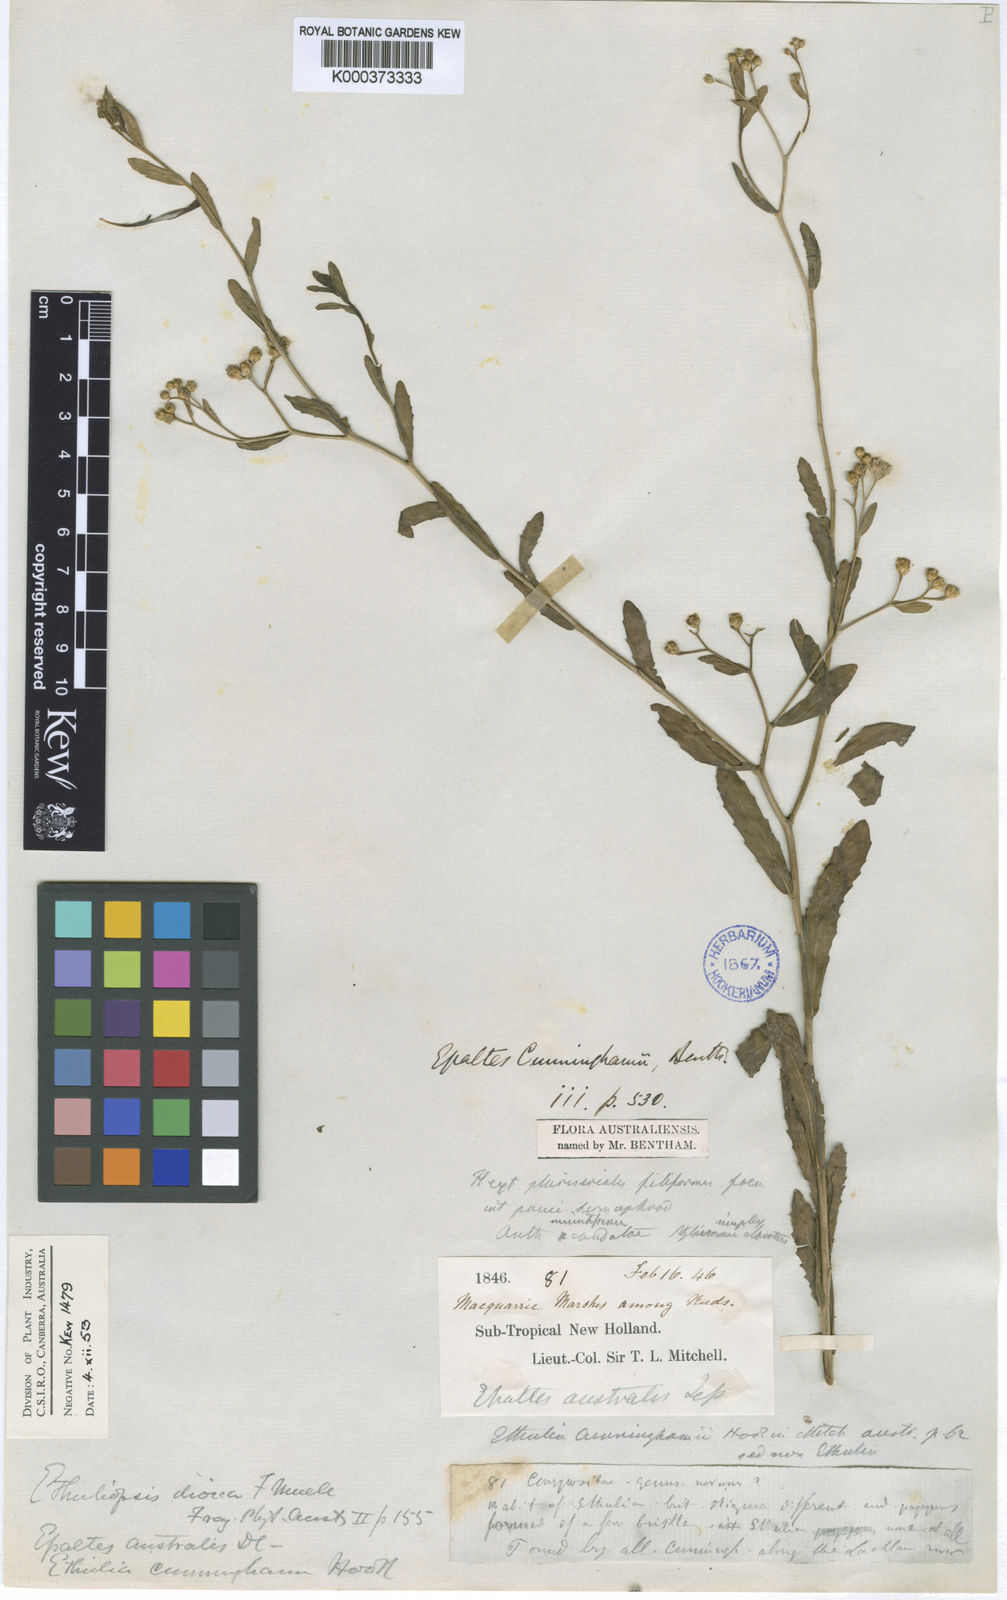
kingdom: Plantae
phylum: Tracheophyta
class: Magnoliopsida
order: Asterales
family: Asteraceae
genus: Epaltes
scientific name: Epaltes cunninghamii
